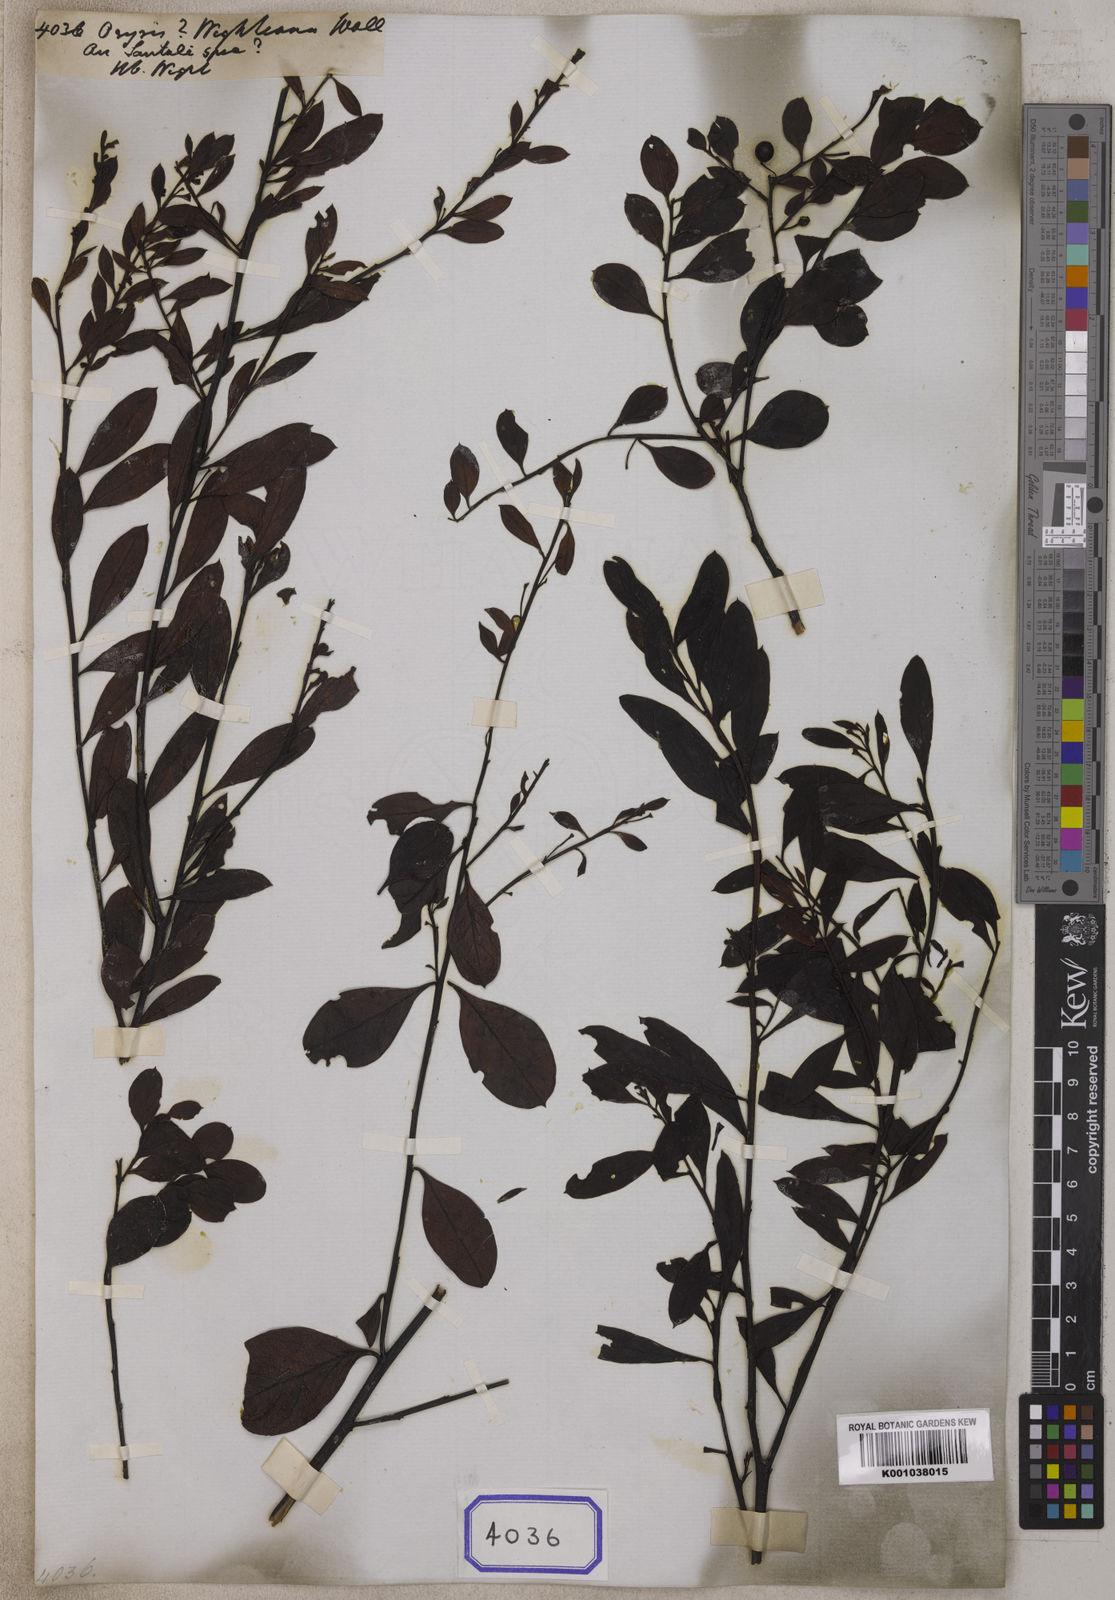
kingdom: Plantae
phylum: Tracheophyta
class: Magnoliopsida
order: Santalales
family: Santalaceae
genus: Osyris
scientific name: Osyris
